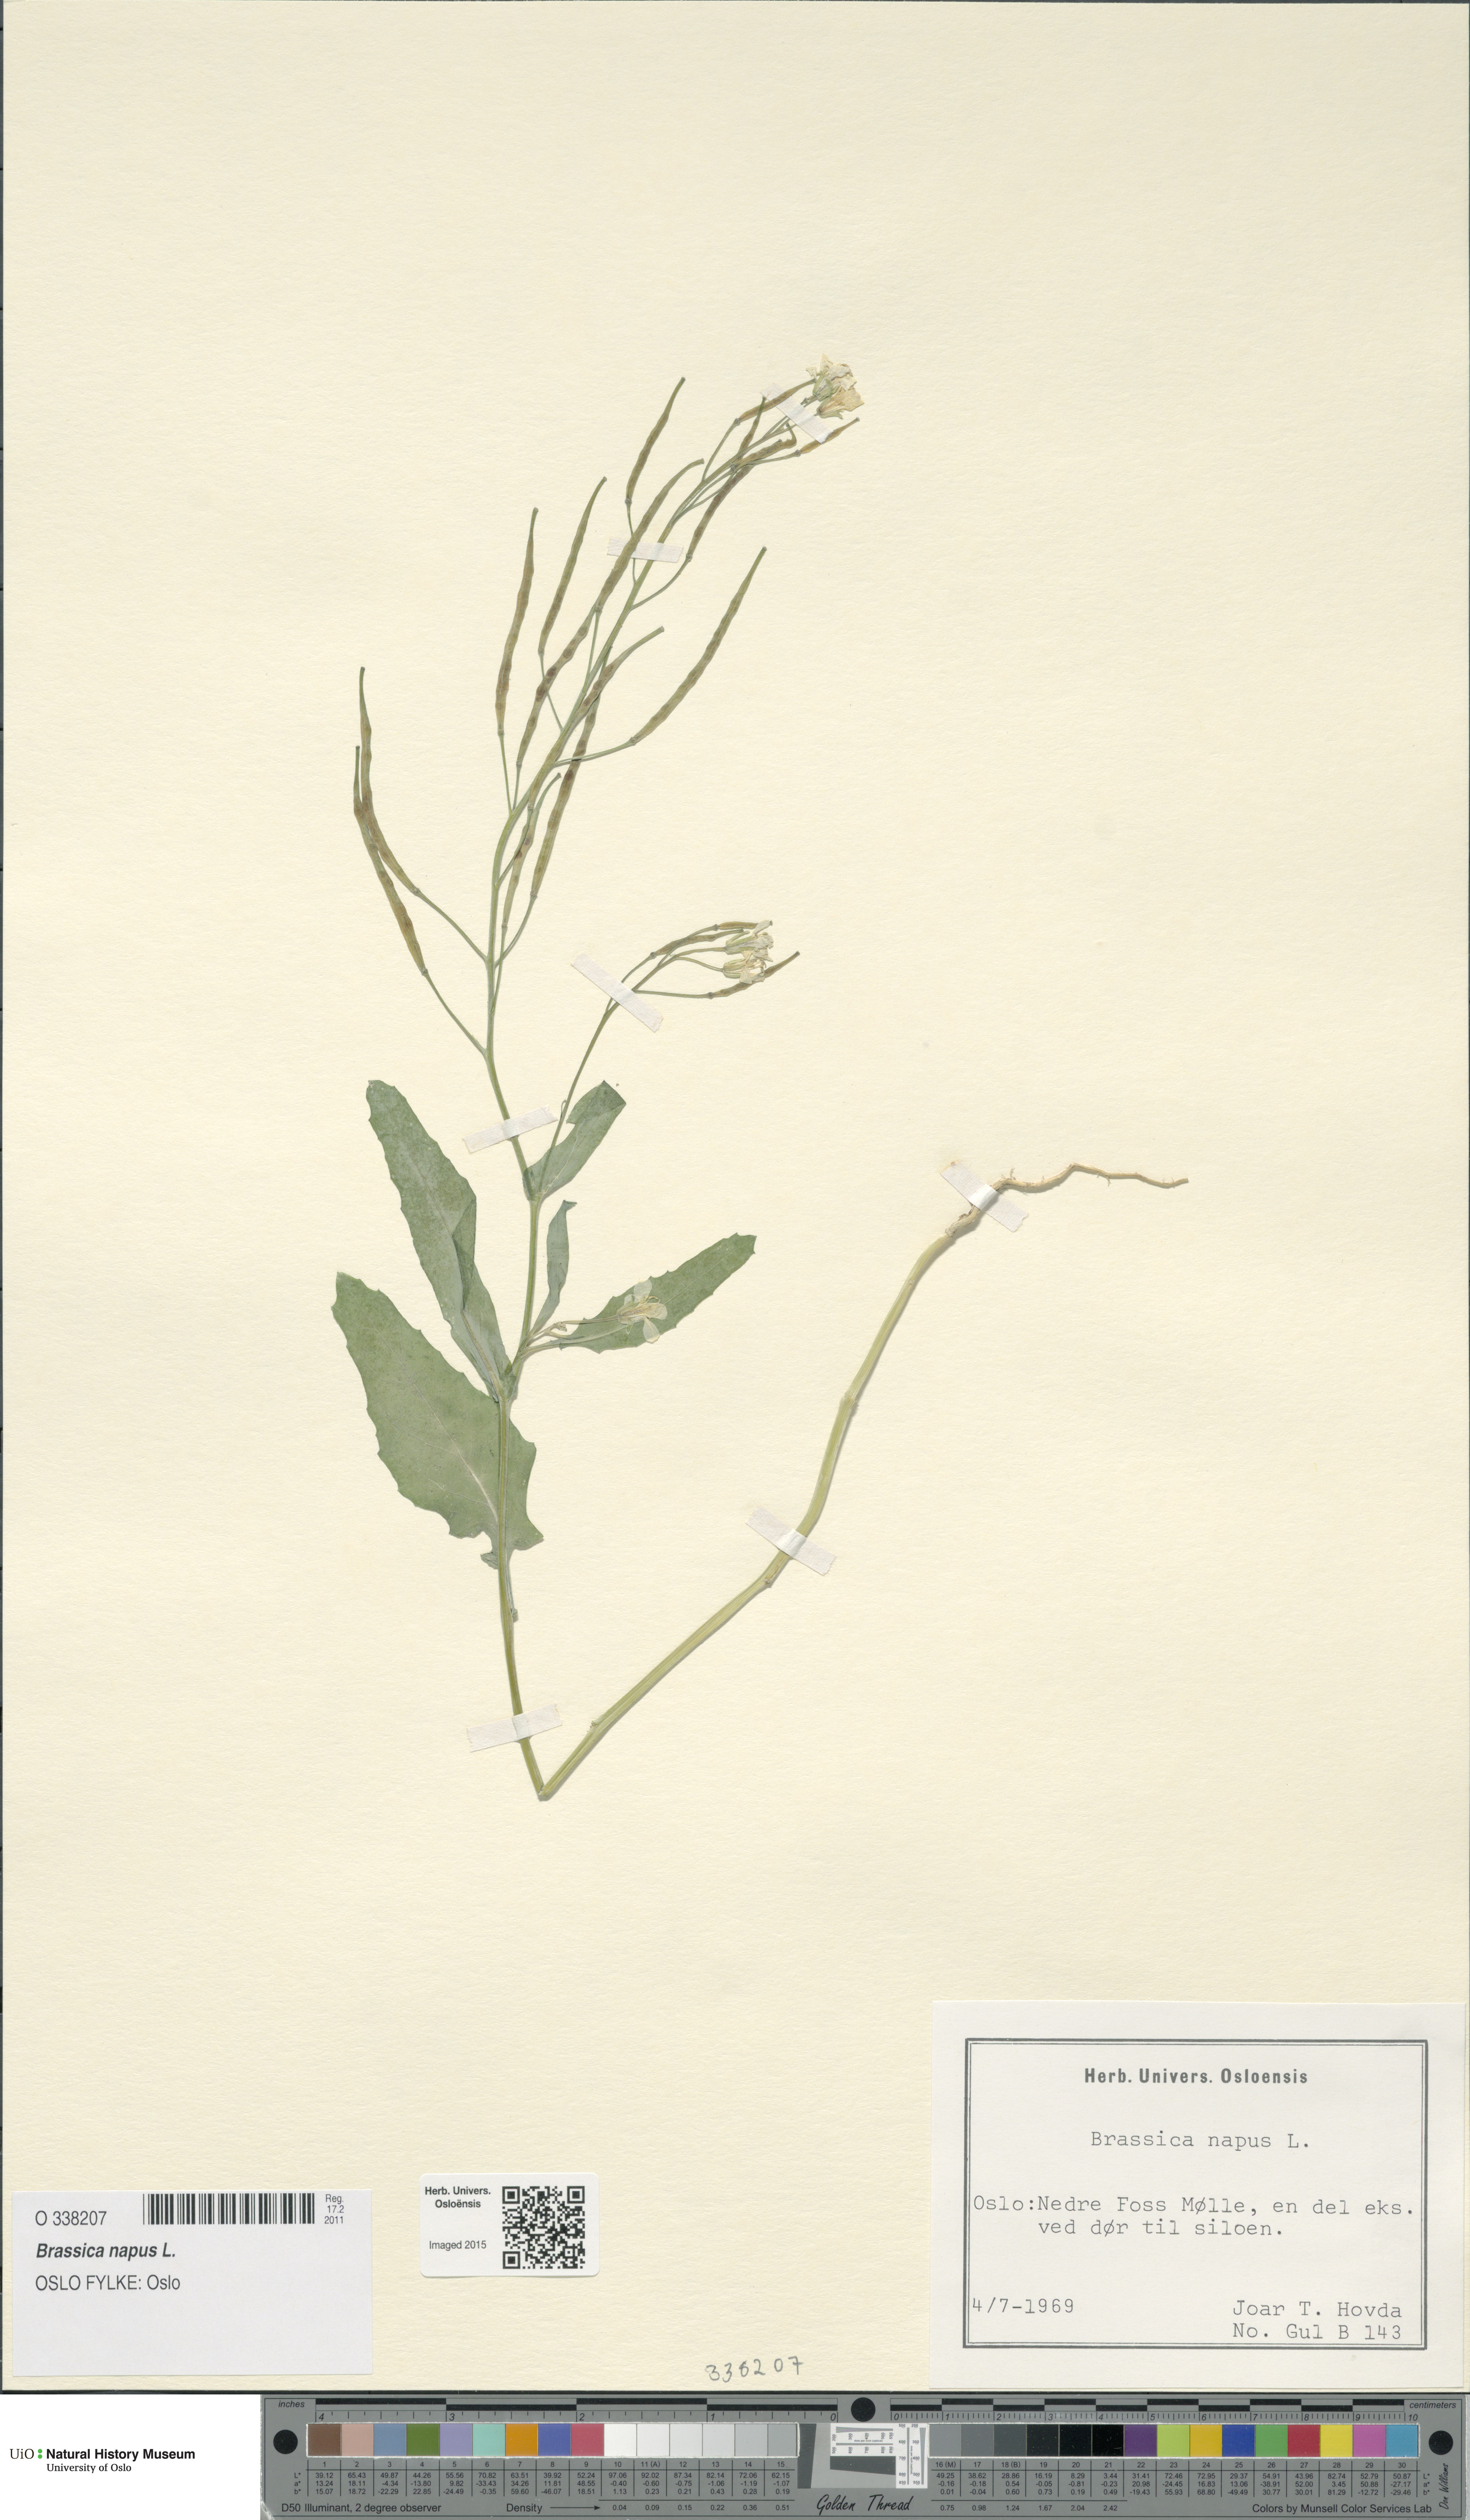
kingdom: Plantae
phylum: Tracheophyta
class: Magnoliopsida
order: Brassicales
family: Brassicaceae
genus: Brassica
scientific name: Brassica napus
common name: Rape
